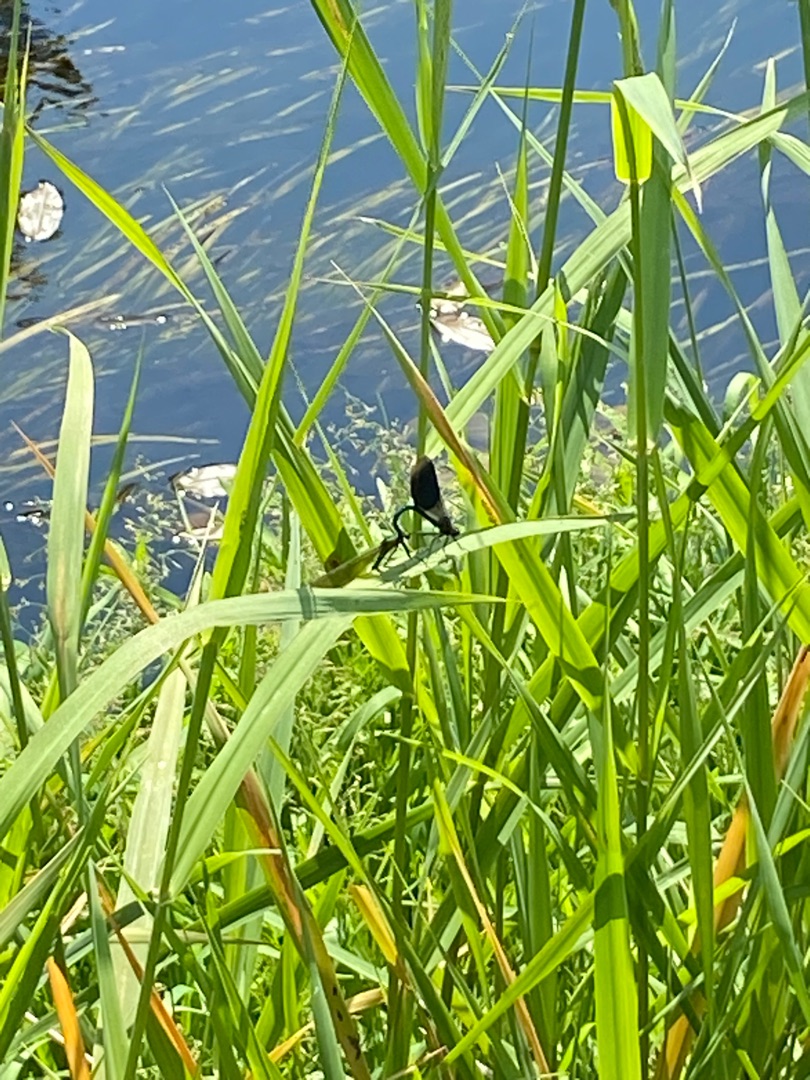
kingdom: Animalia
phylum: Arthropoda
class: Insecta
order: Odonata
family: Calopterygidae
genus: Calopteryx
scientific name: Calopteryx splendens
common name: Blåbåndet pragtvandnymfe
